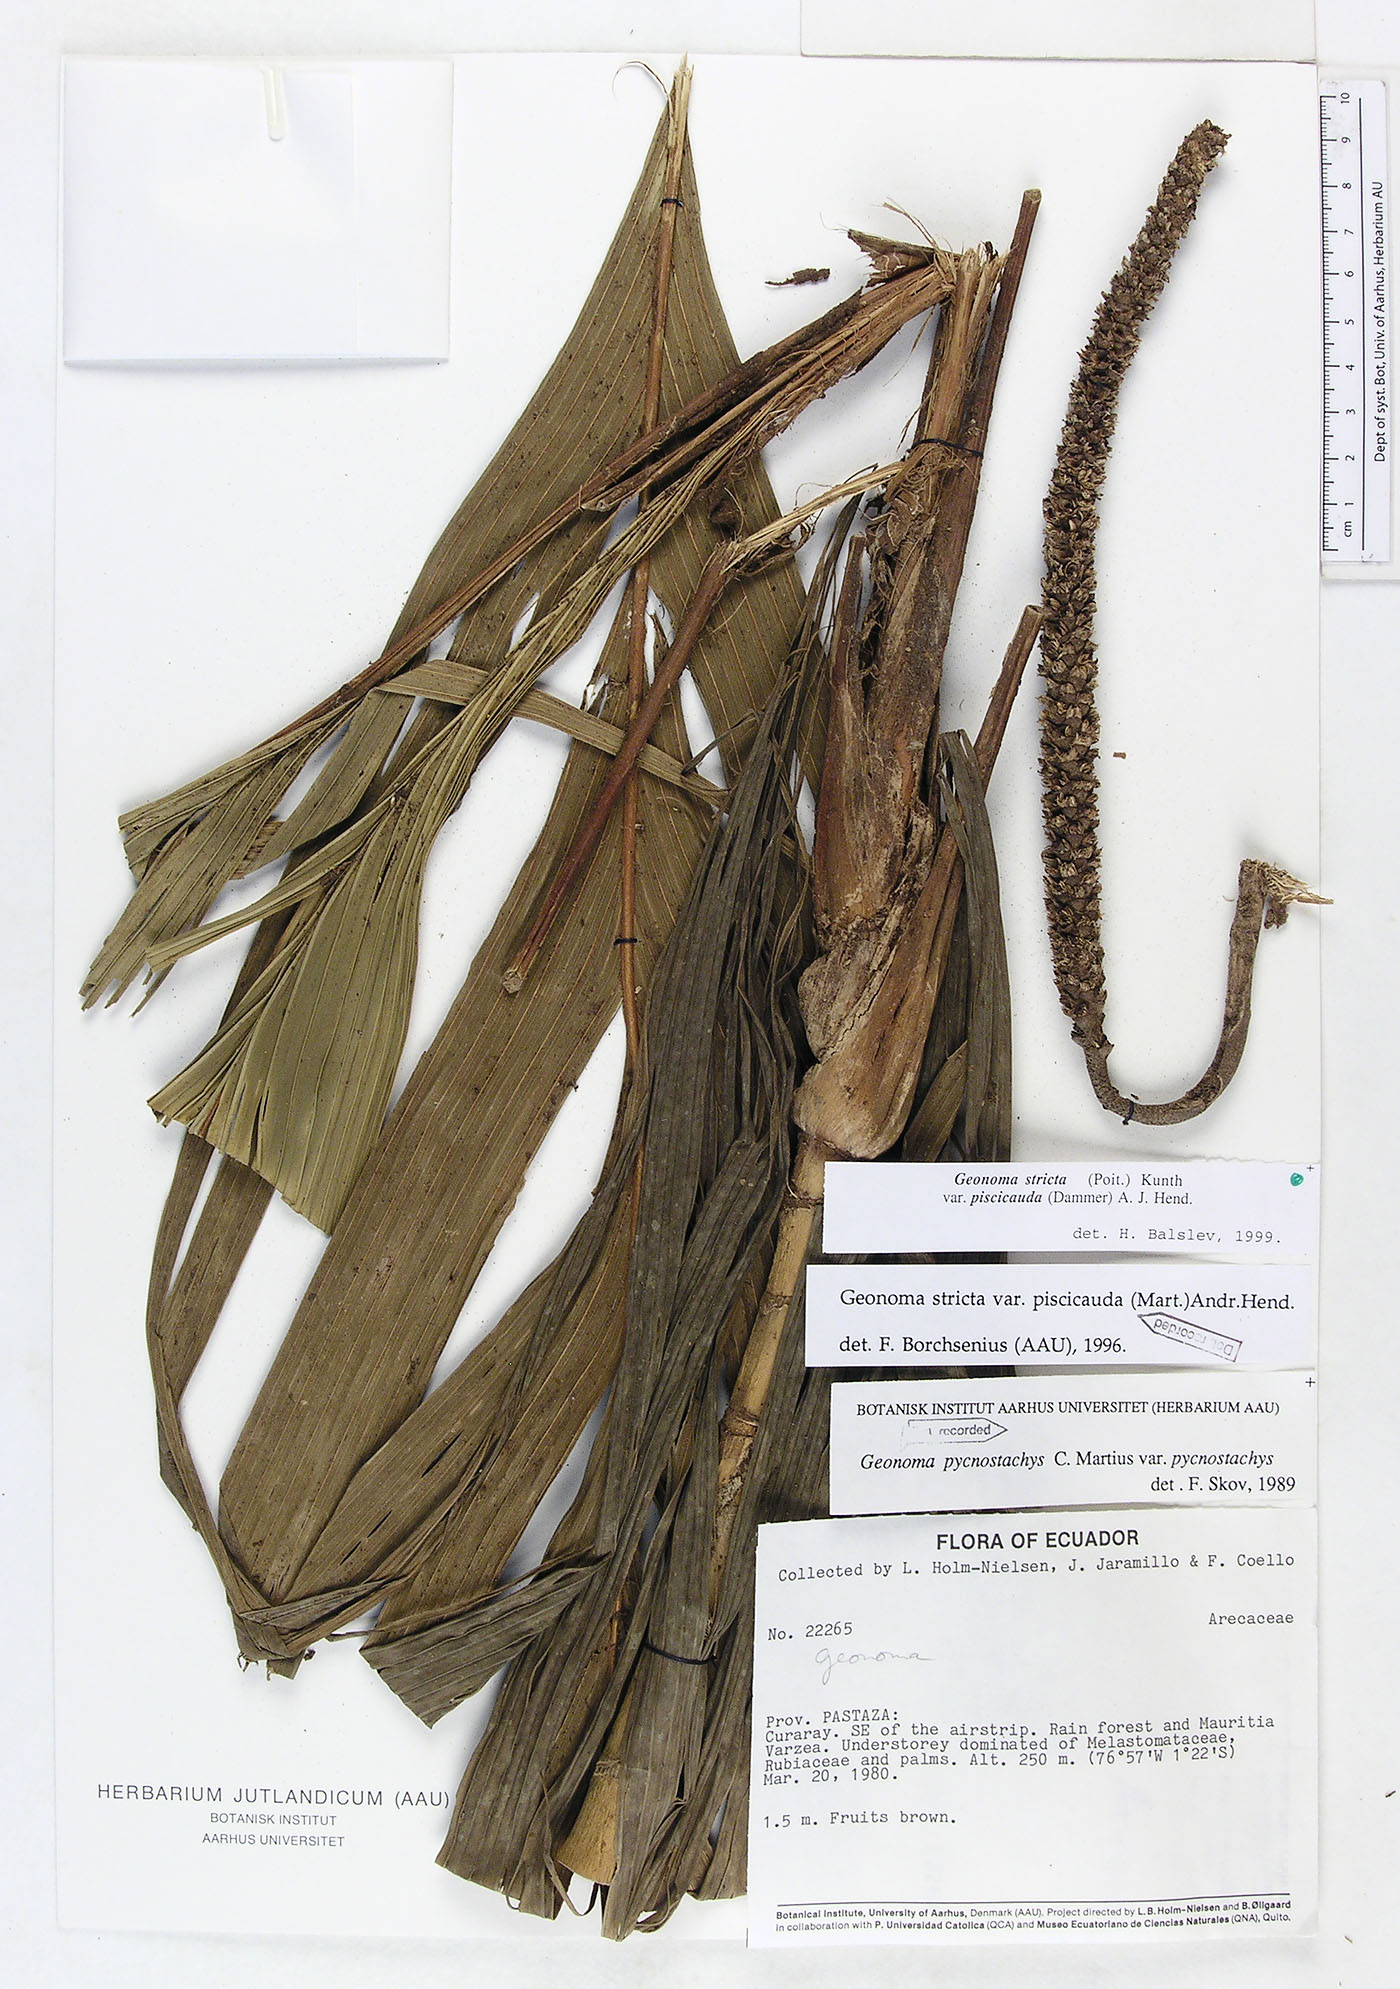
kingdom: Plantae
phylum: Tracheophyta
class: Liliopsida
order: Arecales
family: Arecaceae
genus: Geonoma
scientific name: Geonoma stricta
